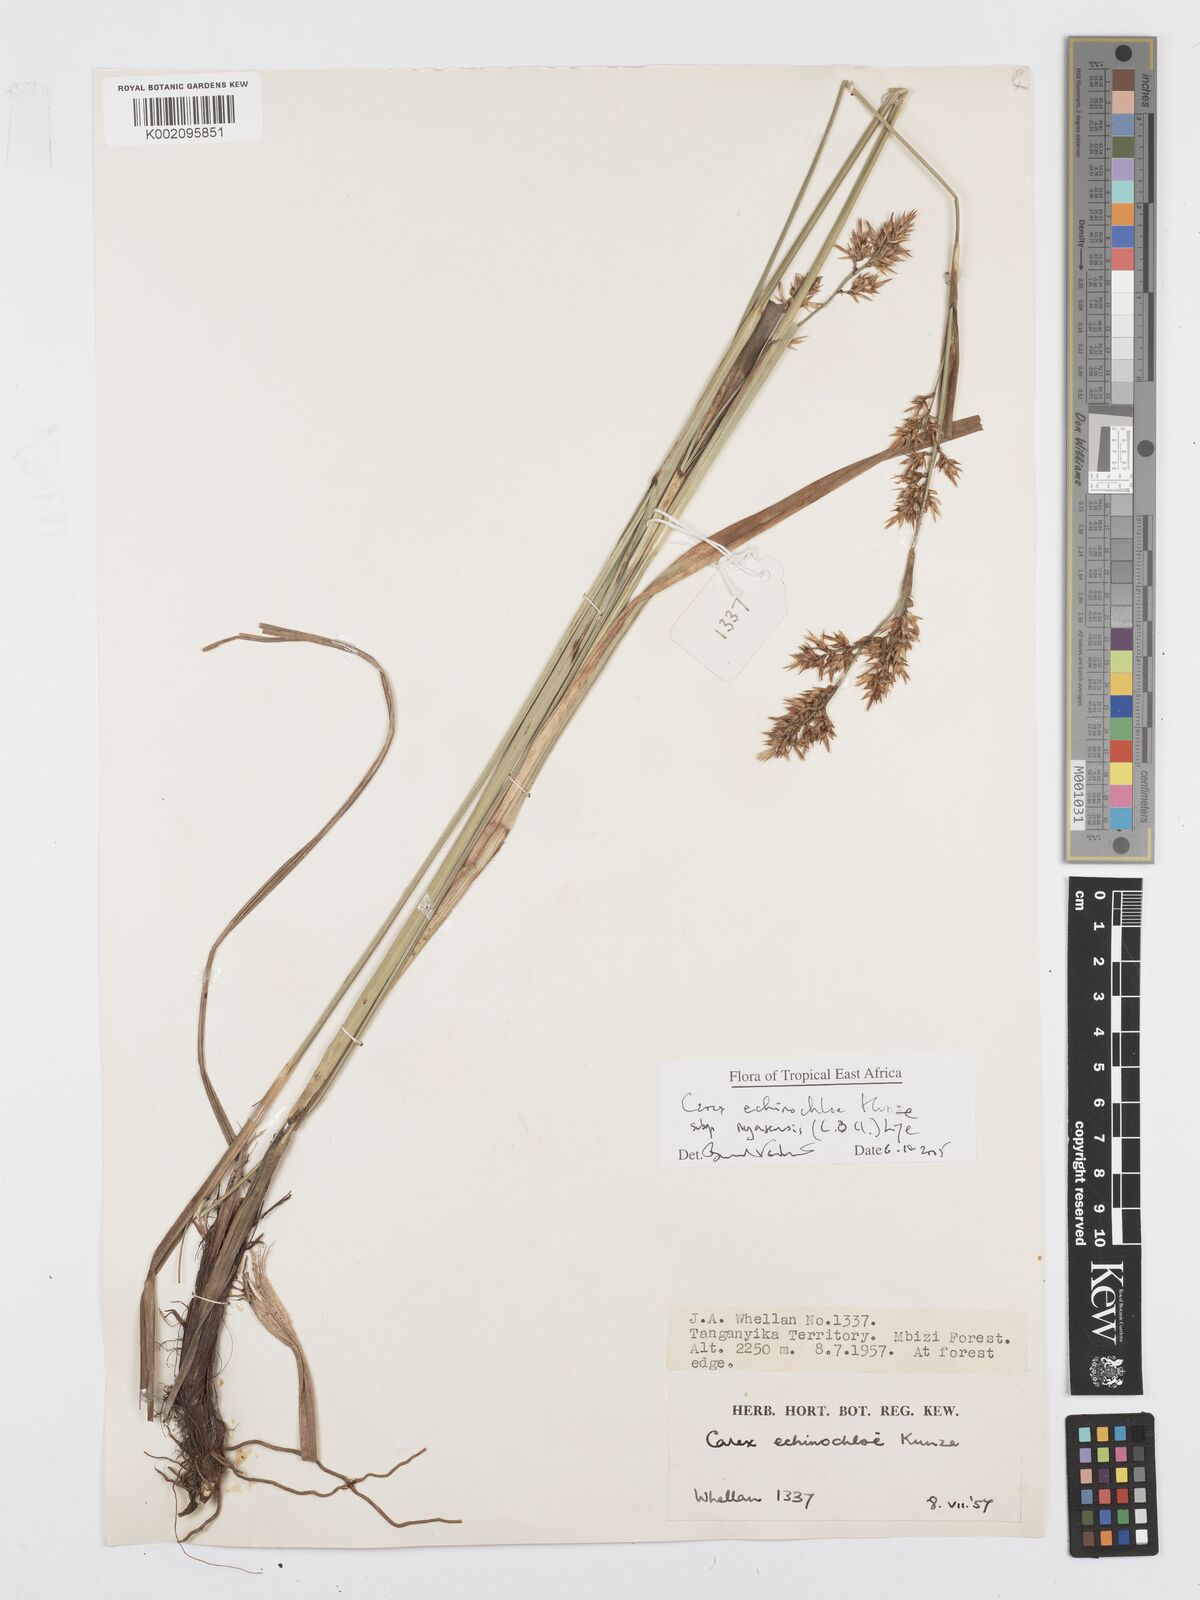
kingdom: Plantae
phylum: Tracheophyta
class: Liliopsida
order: Poales
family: Cyperaceae
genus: Carex
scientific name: Carex spicatopaniculata
